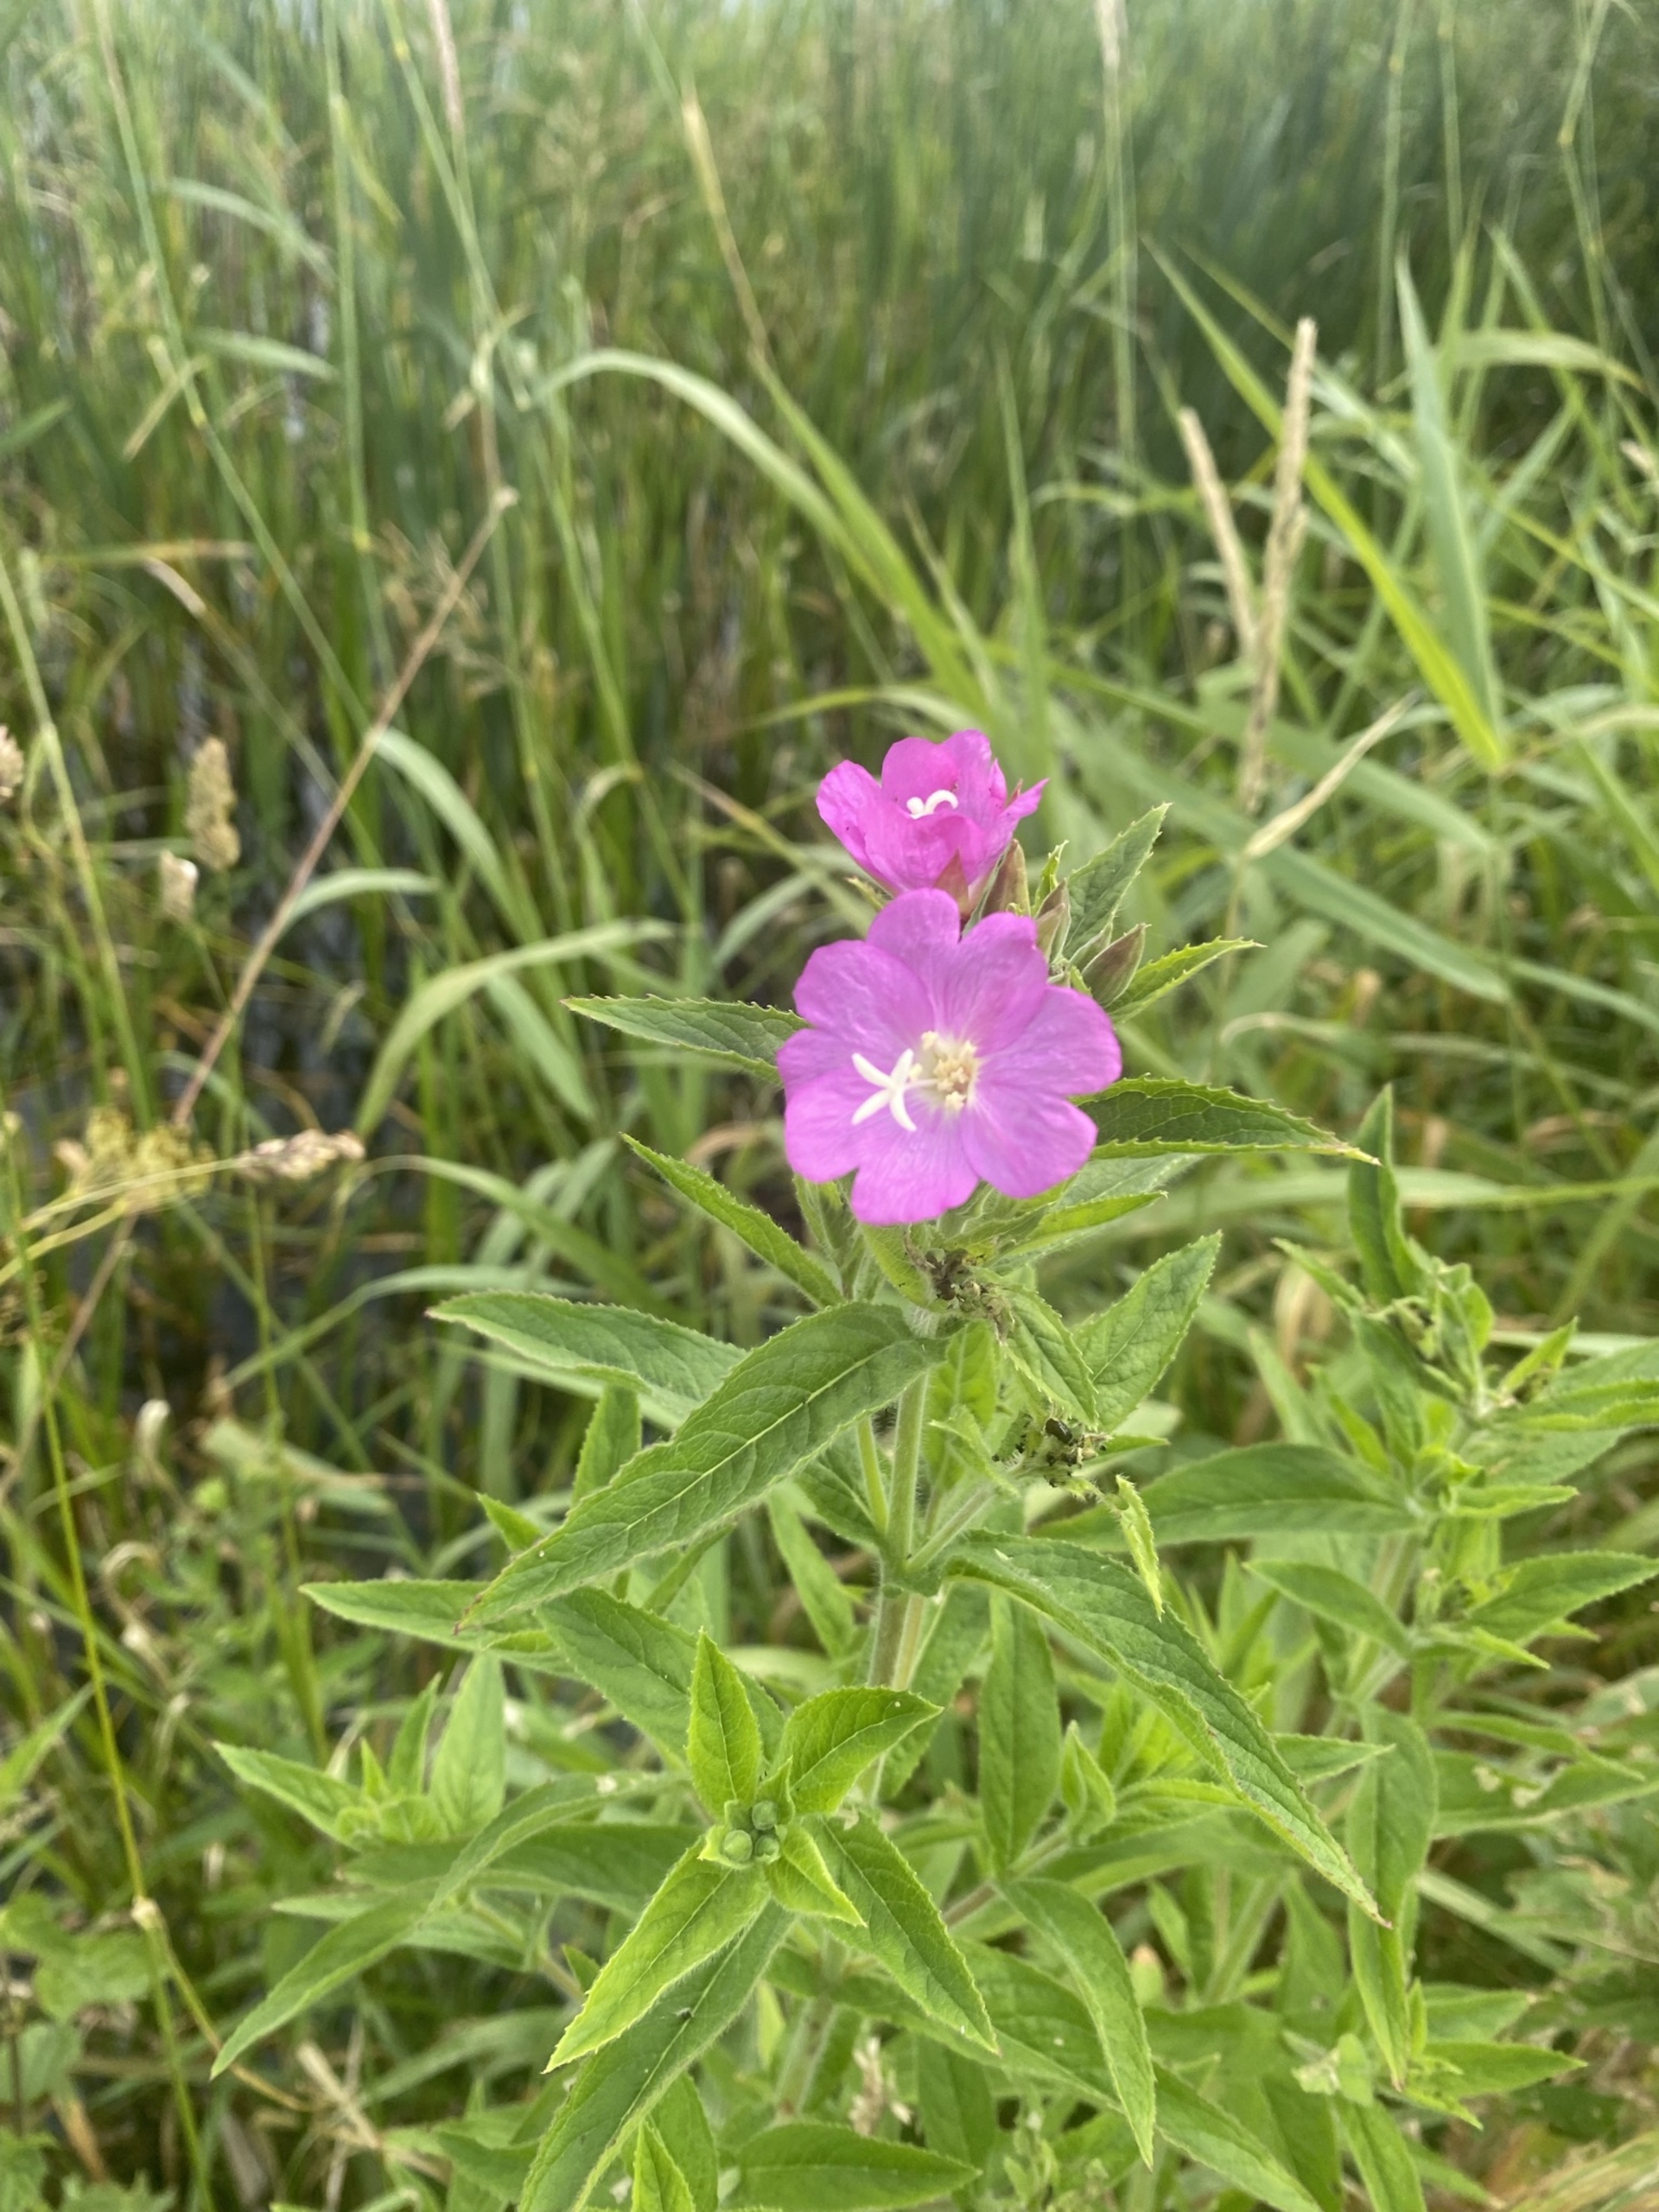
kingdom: Plantae
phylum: Tracheophyta
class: Magnoliopsida
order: Myrtales
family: Onagraceae
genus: Epilobium
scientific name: Epilobium hirsutum
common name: Lådden dueurt
